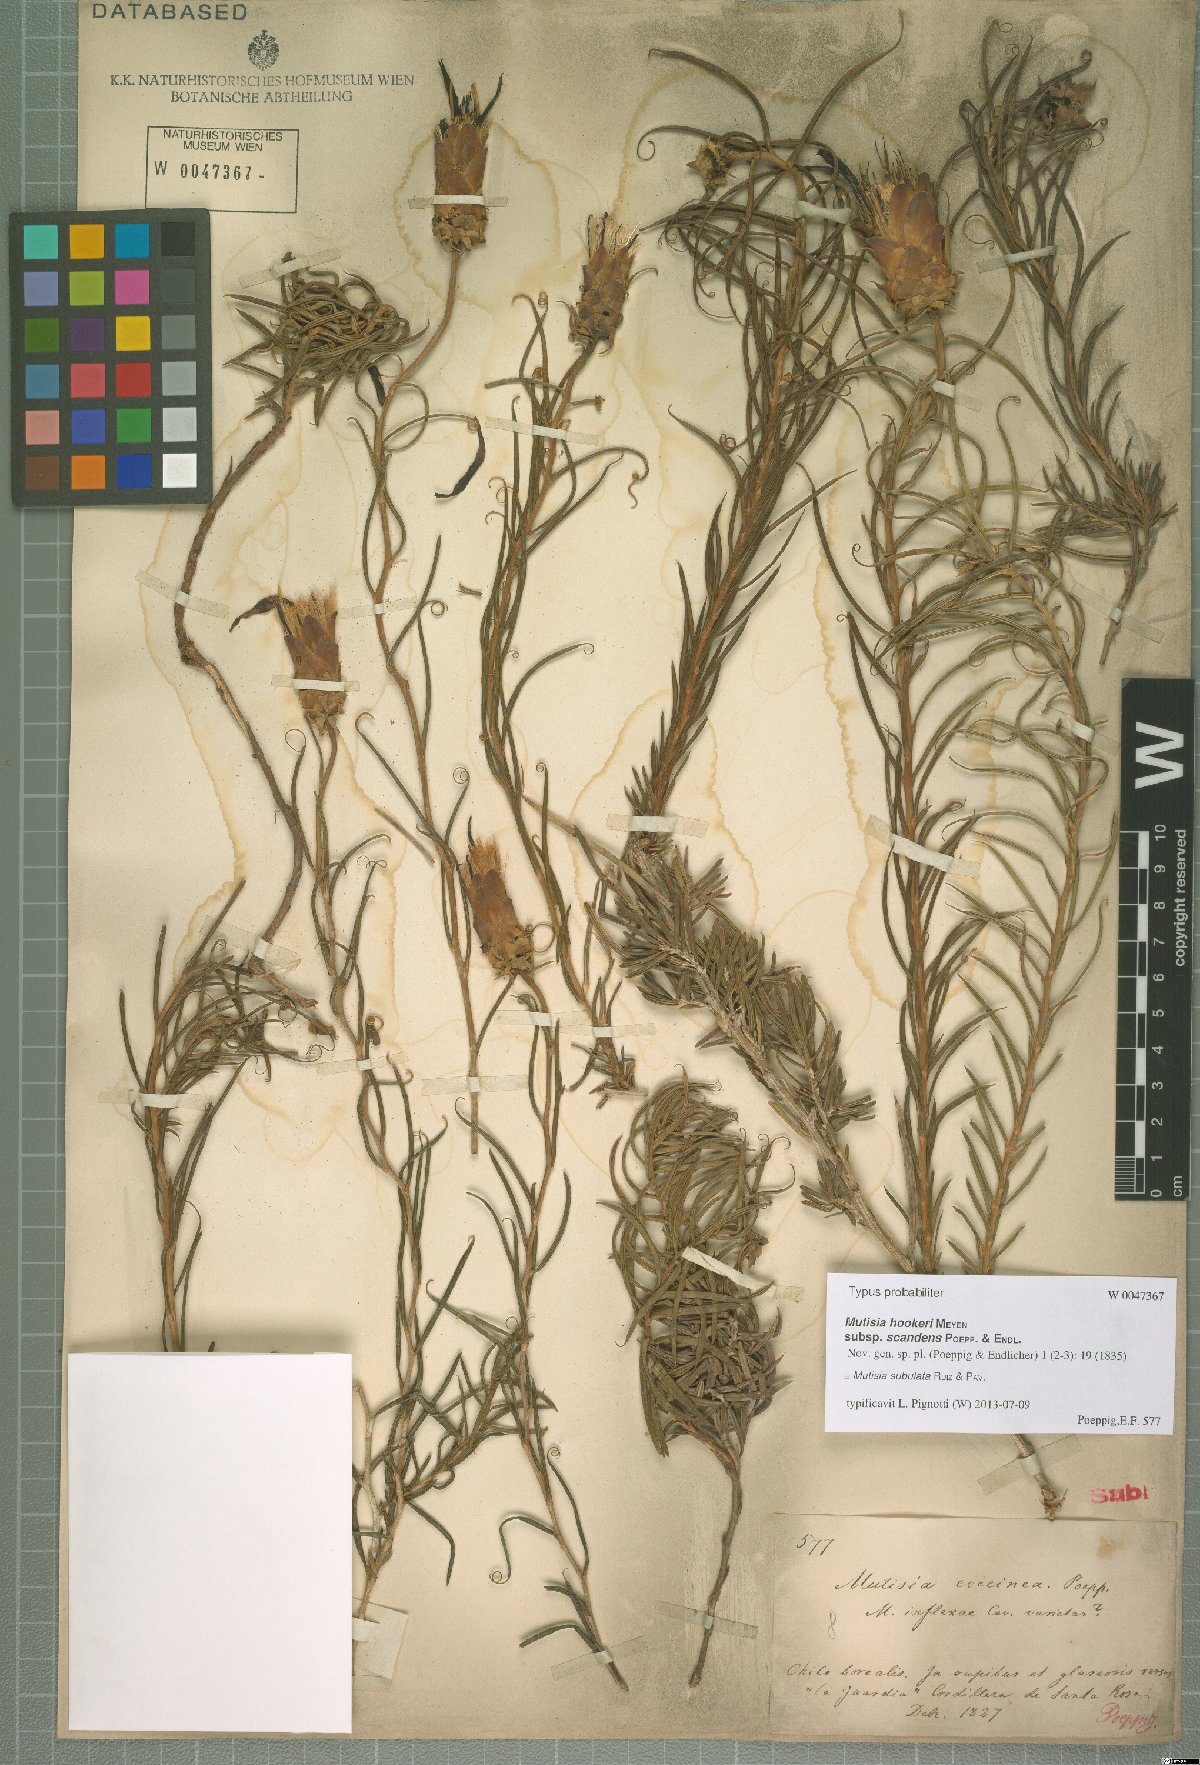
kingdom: Plantae
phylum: Tracheophyta
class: Magnoliopsida
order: Asterales
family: Asteraceae
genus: Mutisia
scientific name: Mutisia subulata
